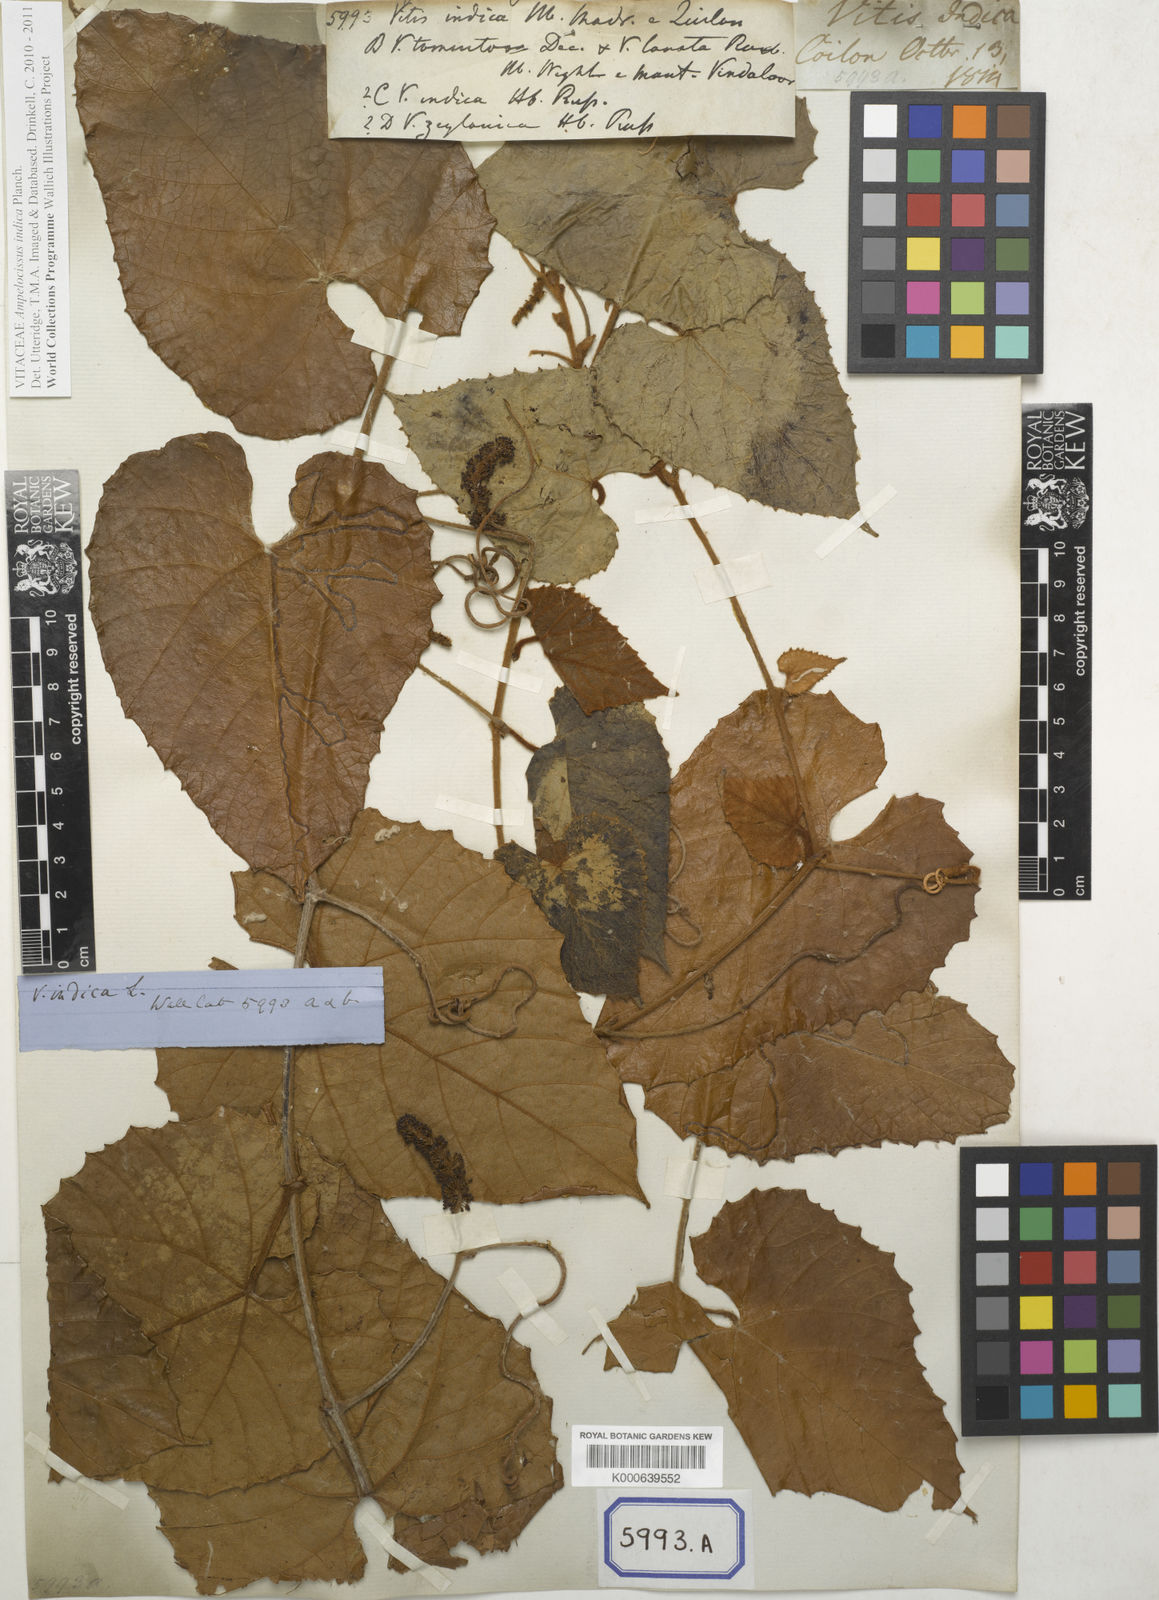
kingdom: Plantae
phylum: Tracheophyta
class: Magnoliopsida
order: Vitales
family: Vitaceae
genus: Ampelocissus
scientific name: Ampelocissus indica
